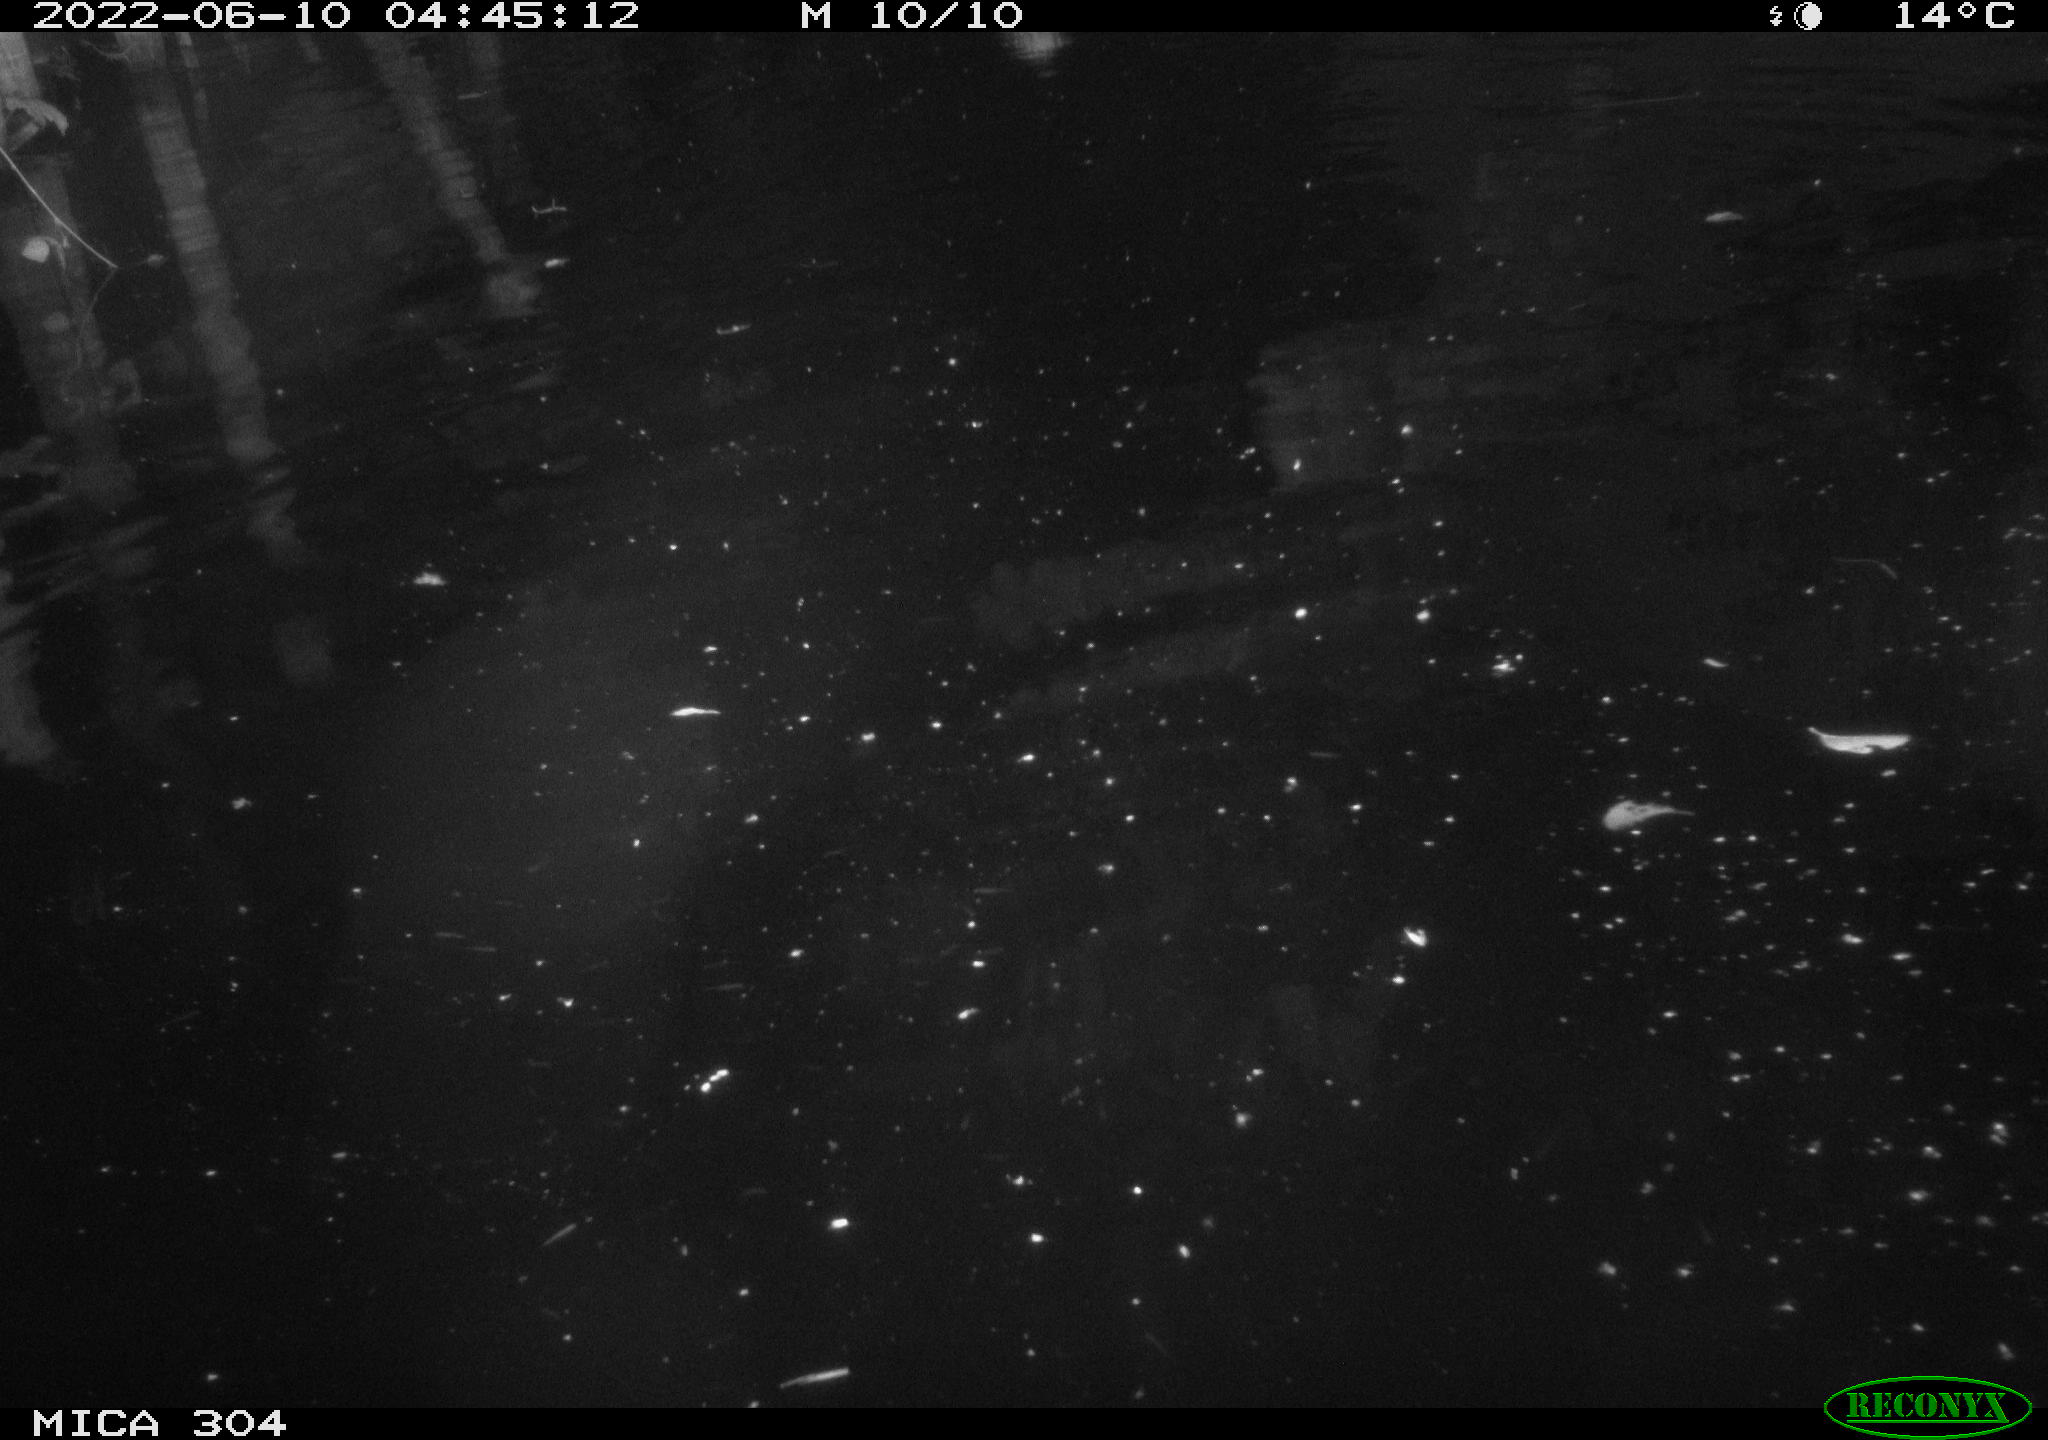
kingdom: Animalia
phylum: Chordata
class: Aves
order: Anseriformes
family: Anatidae
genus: Anas
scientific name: Anas platyrhynchos
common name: Mallard
